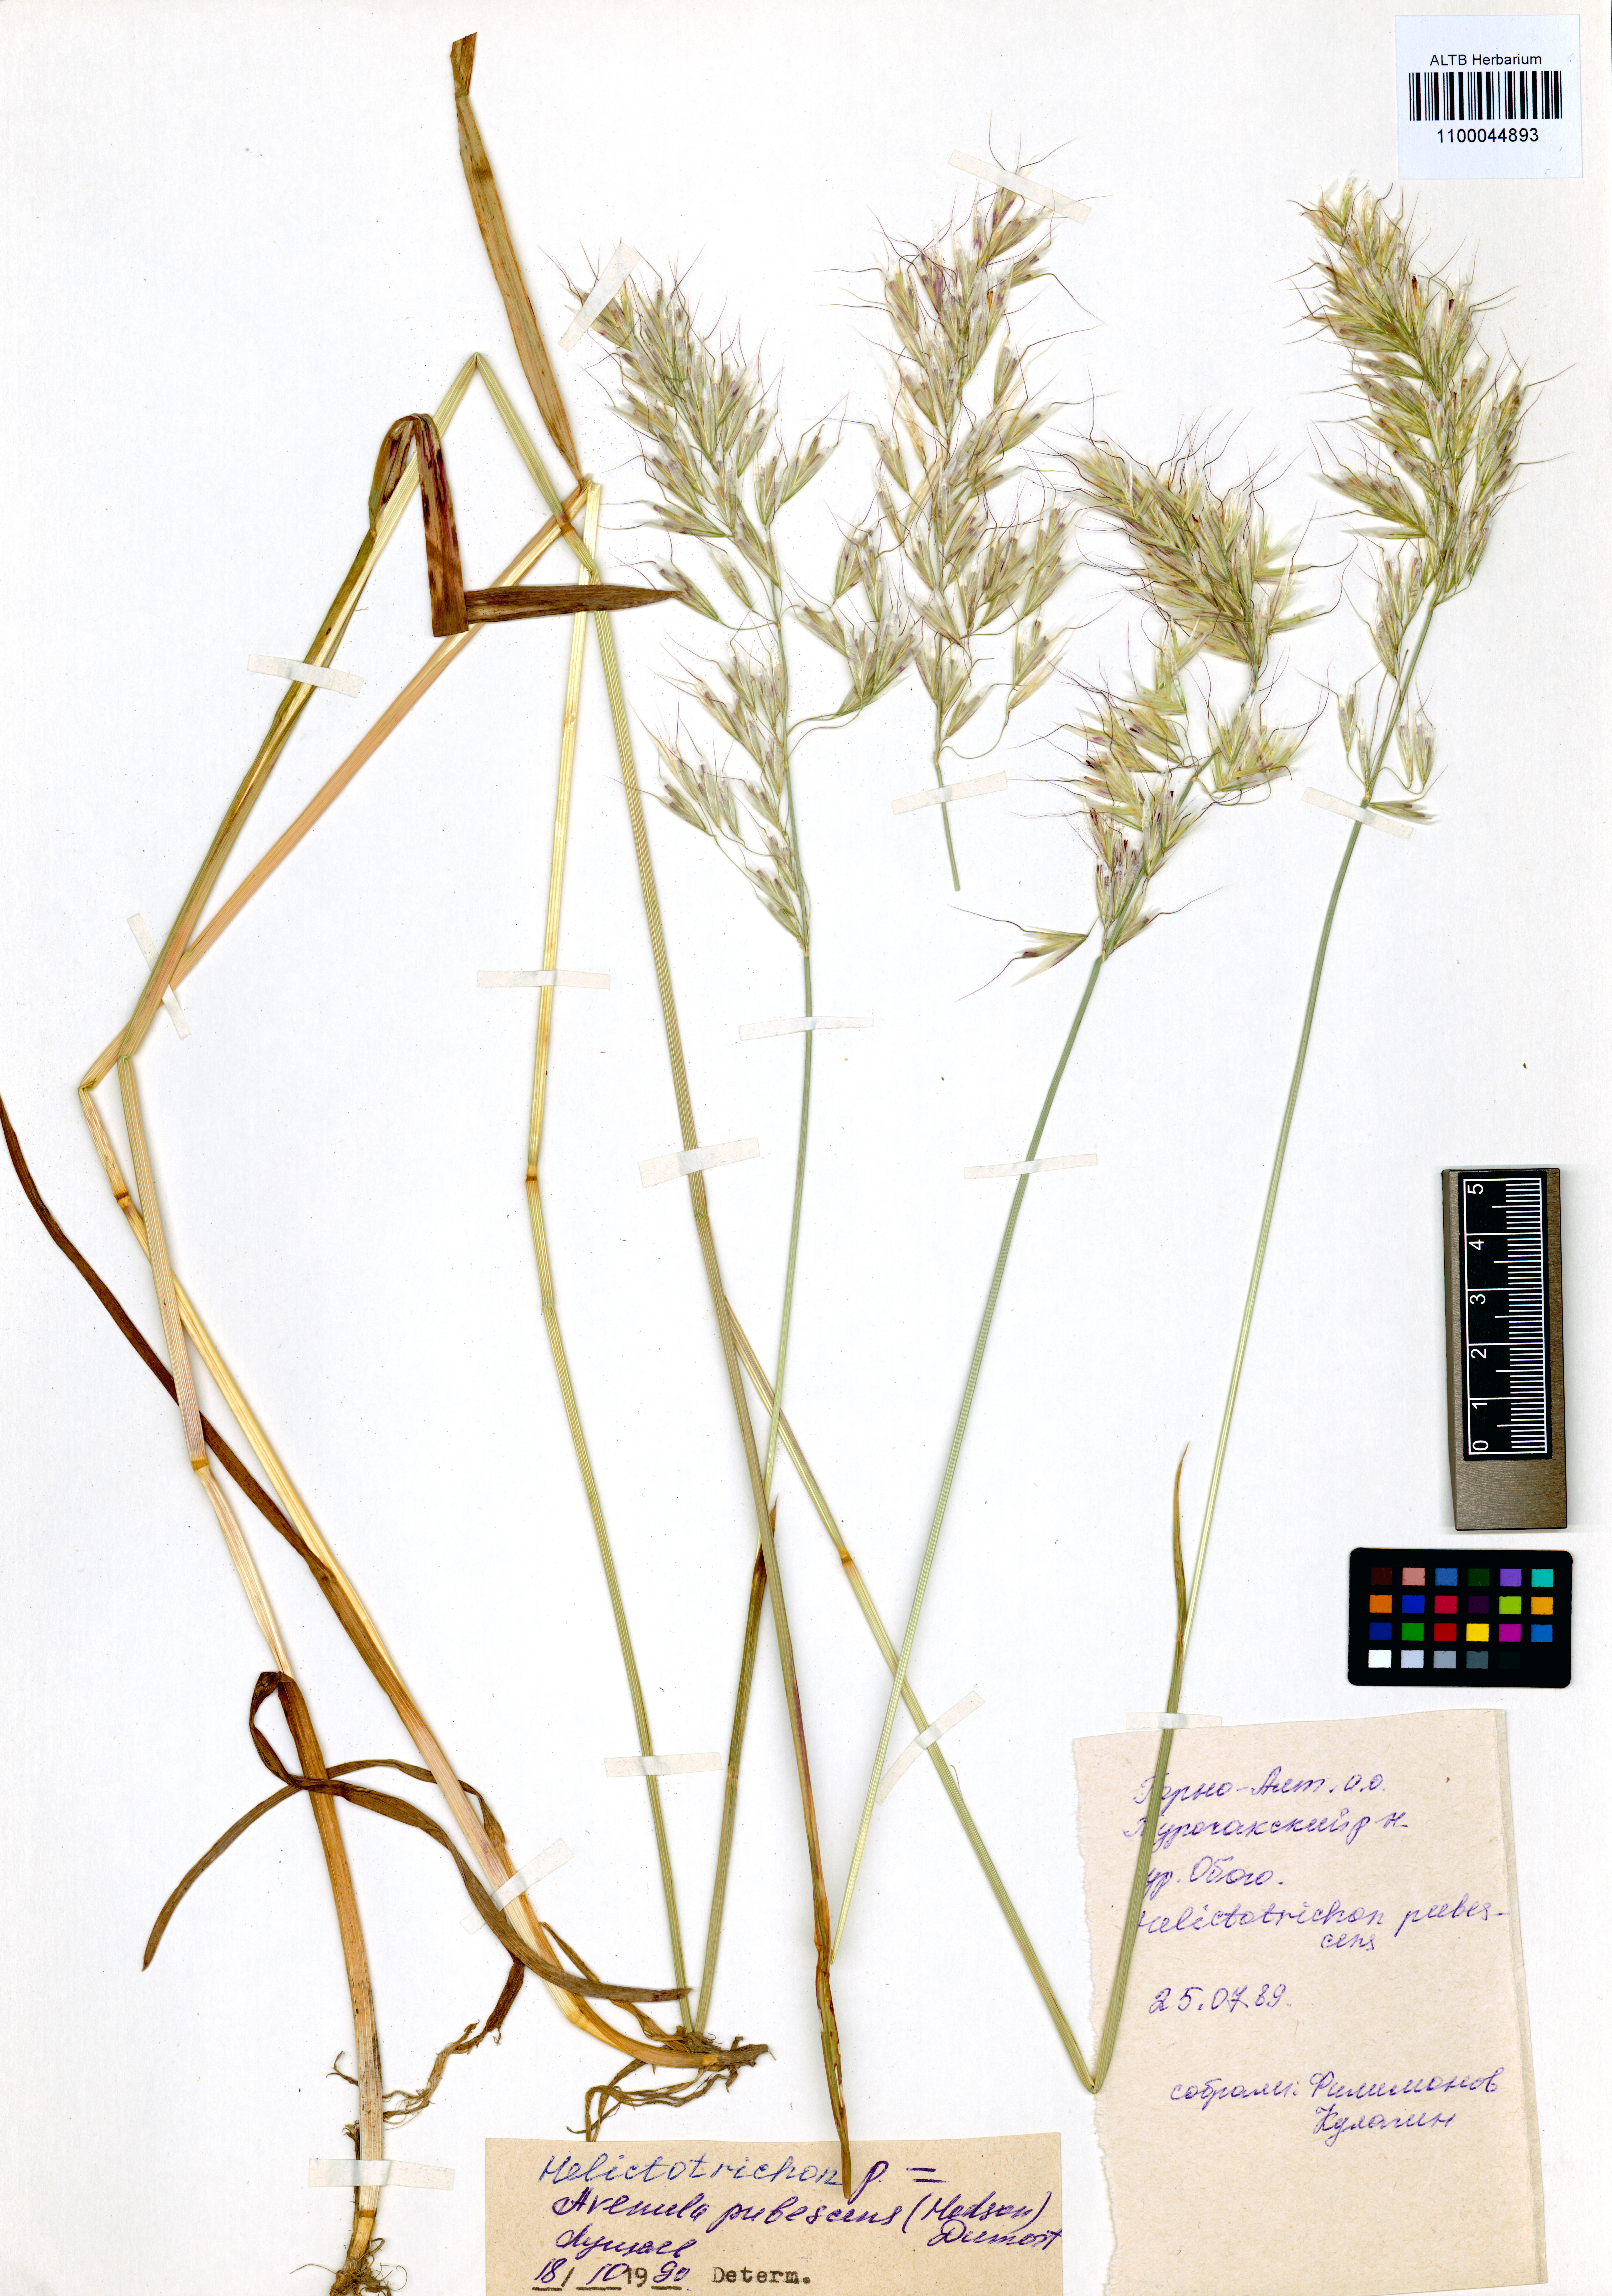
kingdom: Plantae
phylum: Tracheophyta
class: Liliopsida
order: Poales
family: Poaceae
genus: Avenula
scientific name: Avenula pubescens
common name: Downy alpine oatgrass
